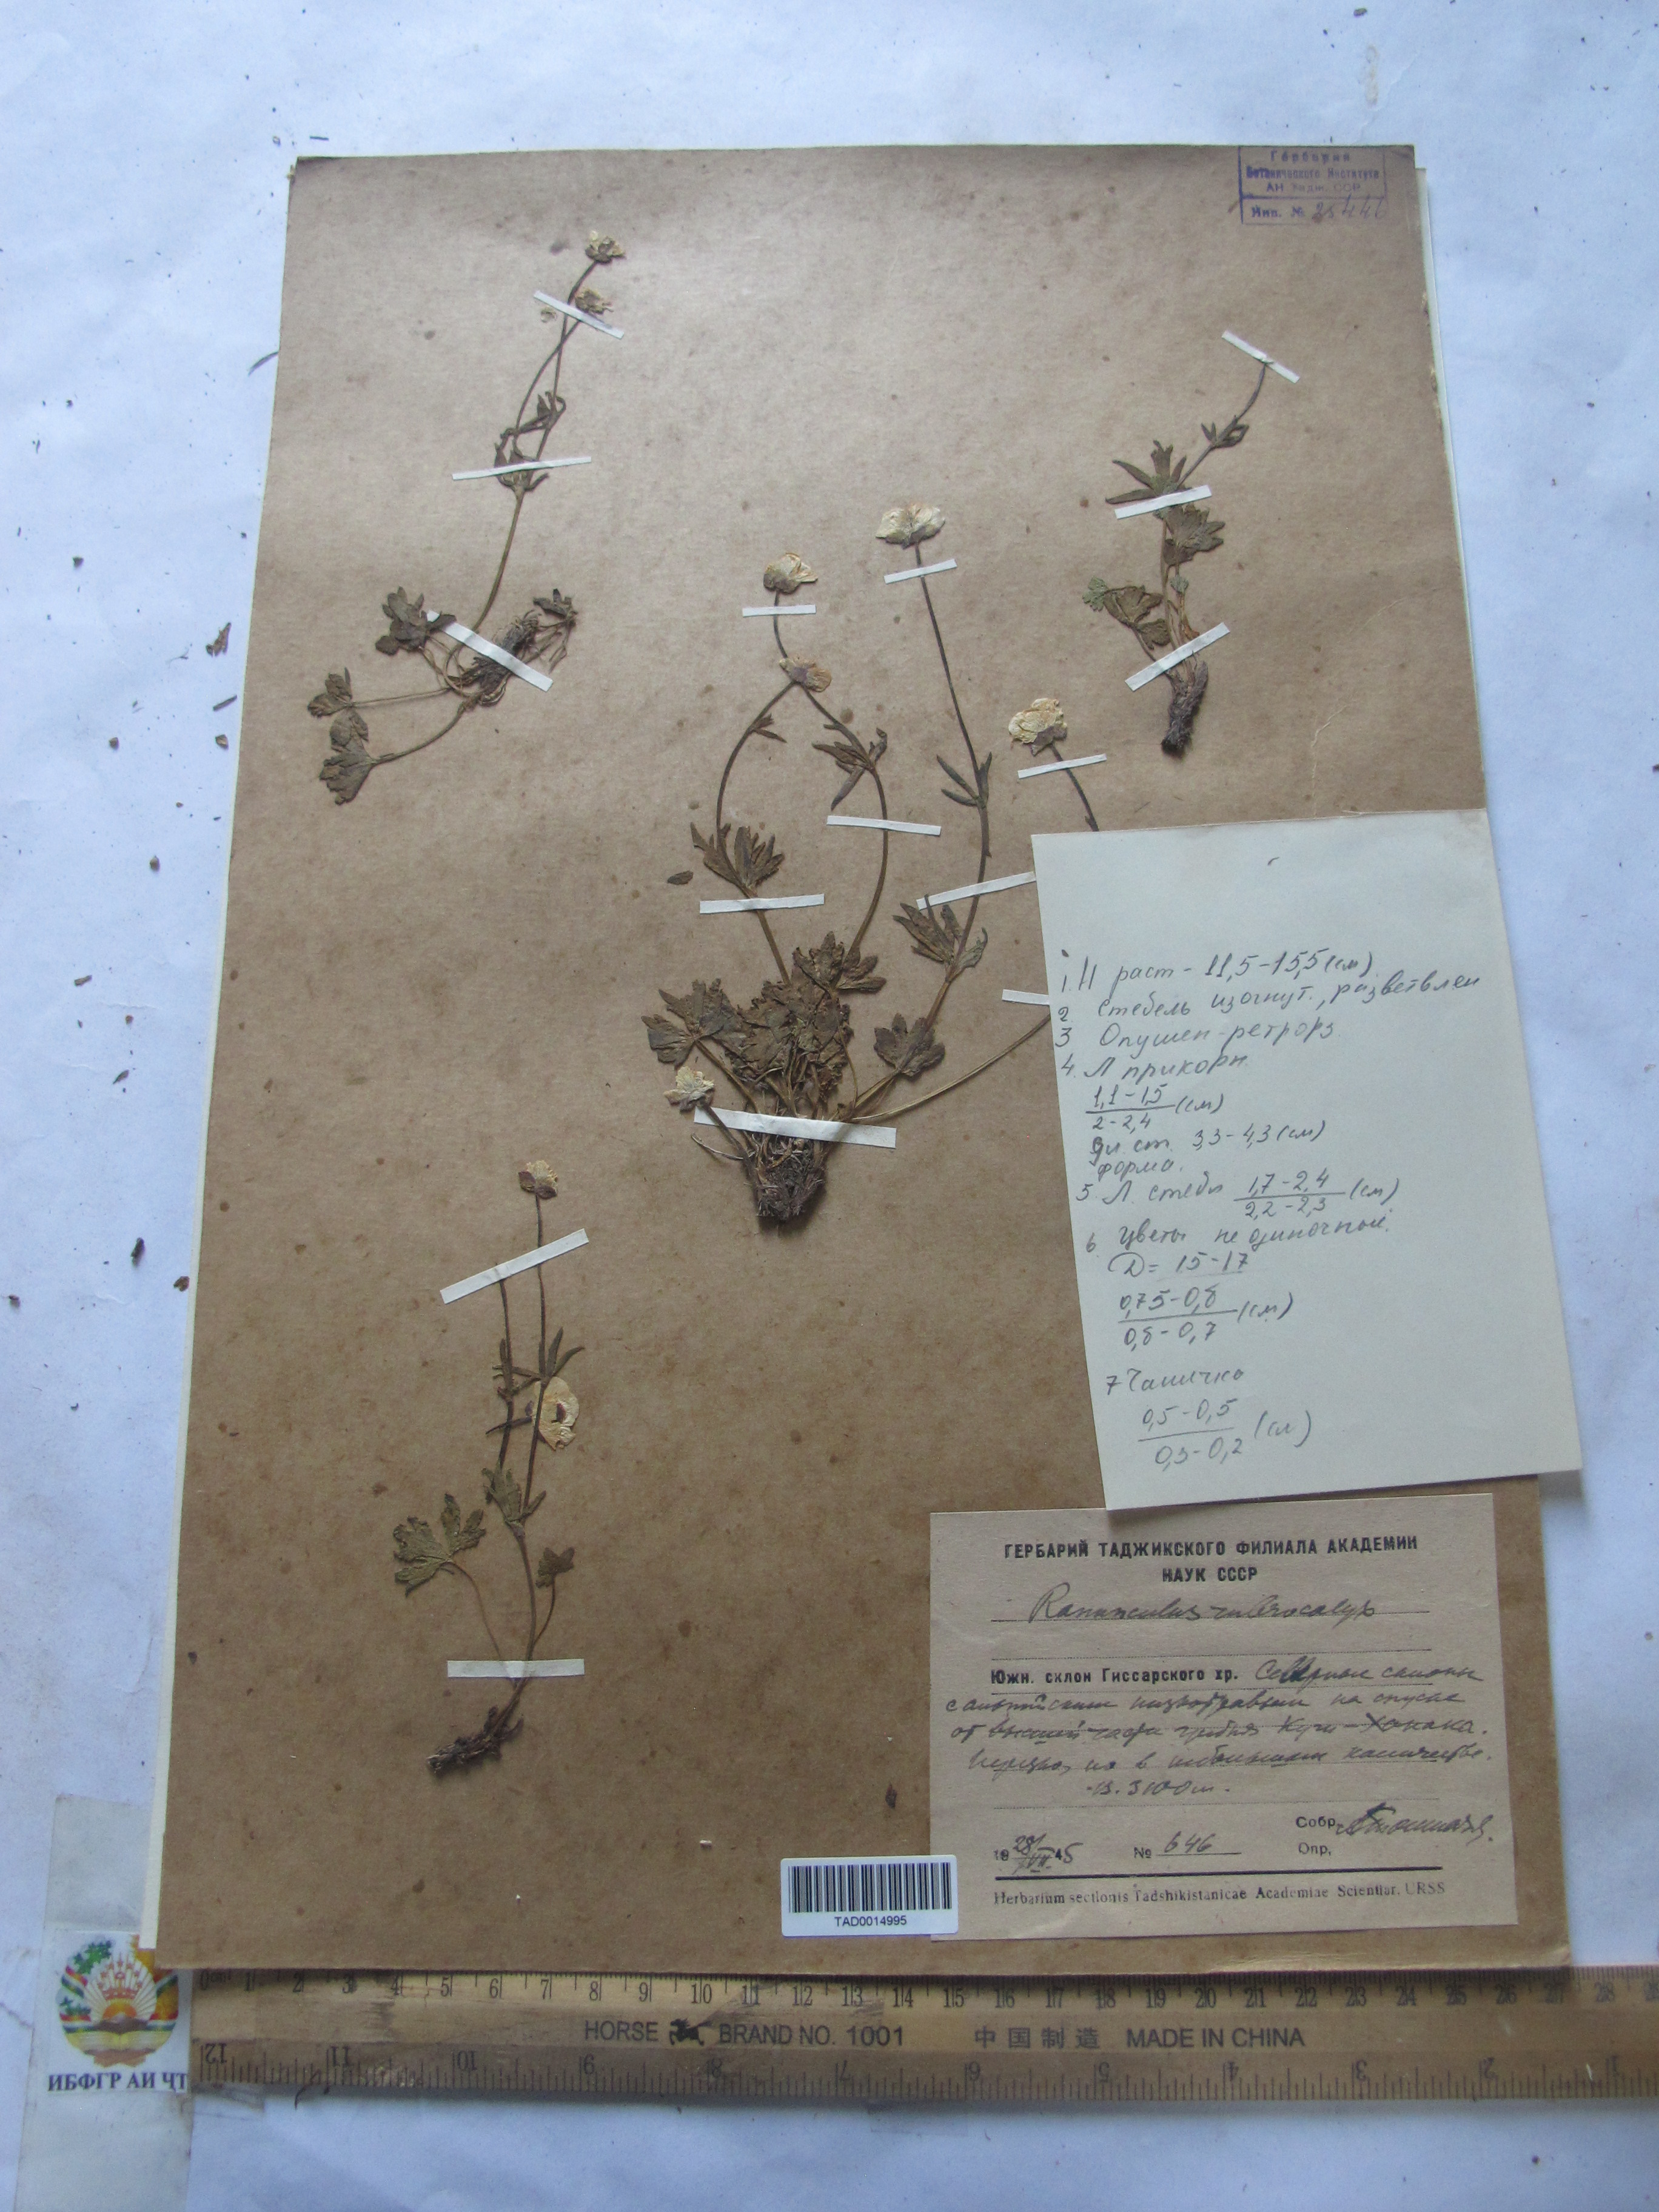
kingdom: Plantae
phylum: Tracheophyta
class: Magnoliopsida
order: Ranunculales
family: Ranunculaceae
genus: Ranunculus
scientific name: Ranunculus rubrocalyx
